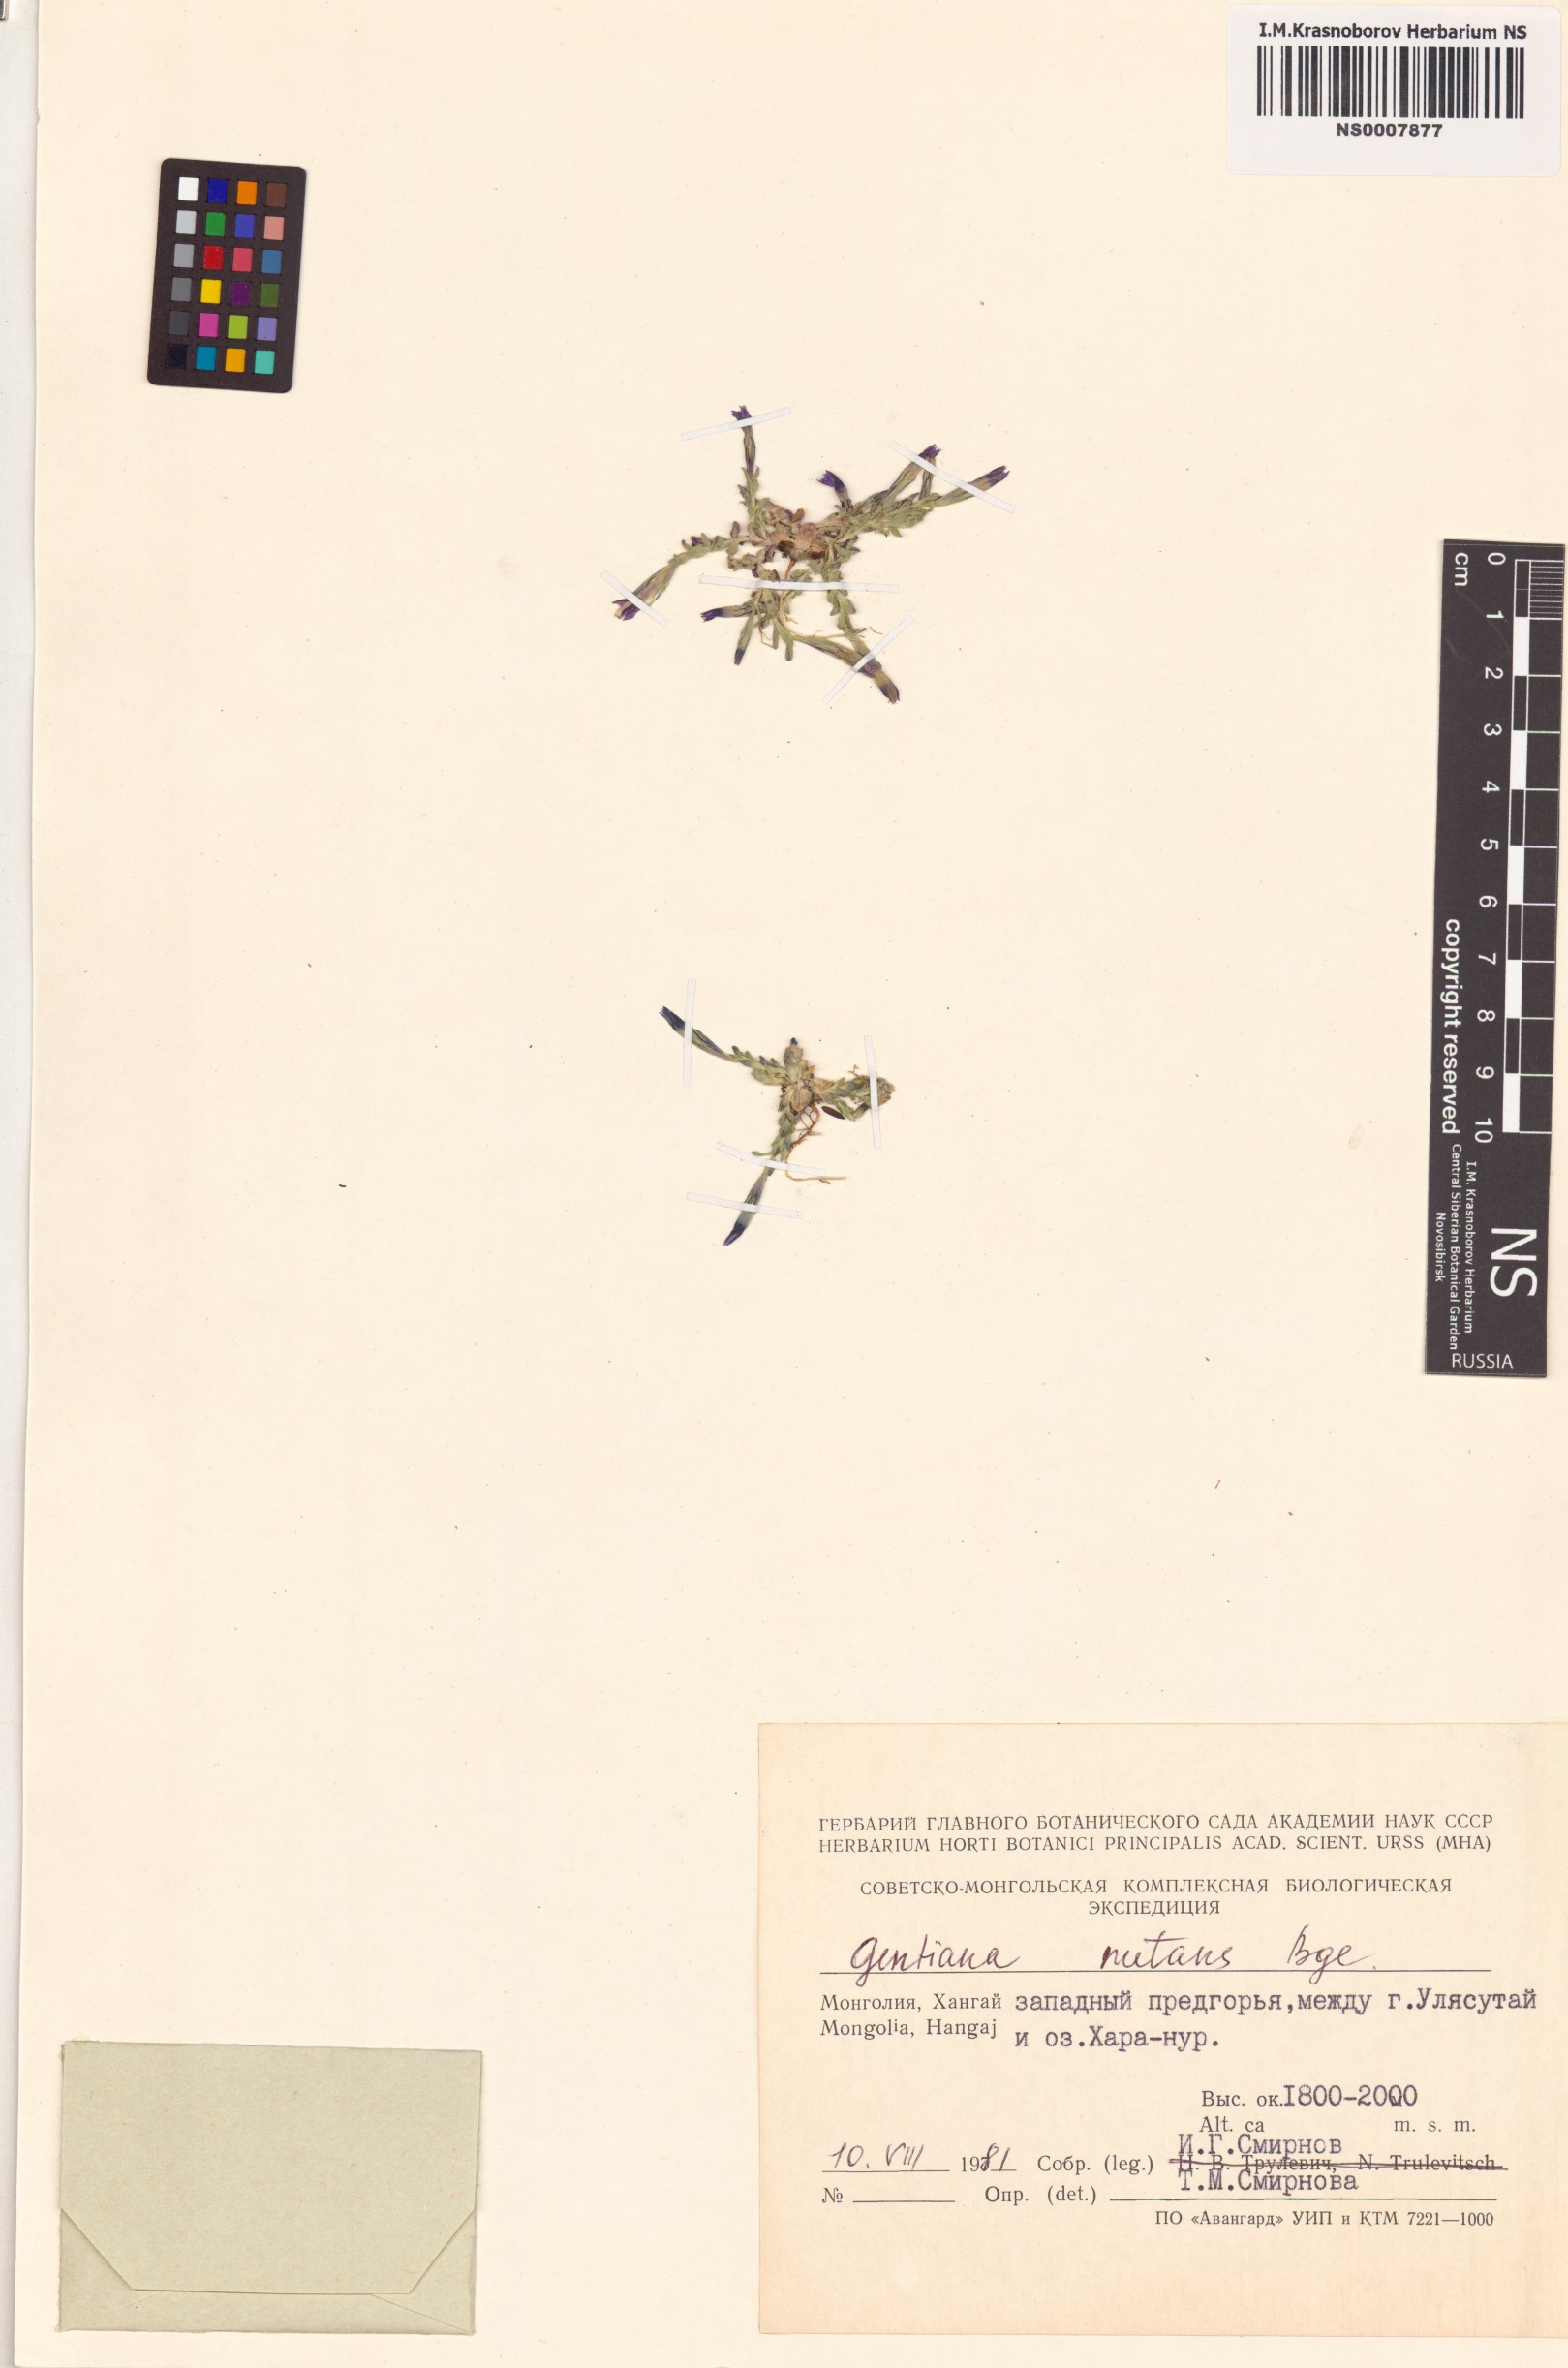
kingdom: Plantae
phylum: Tracheophyta
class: Magnoliopsida
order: Gentianales
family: Gentianaceae
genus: Gentiana
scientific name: Gentiana prostrata
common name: Moss gentian
